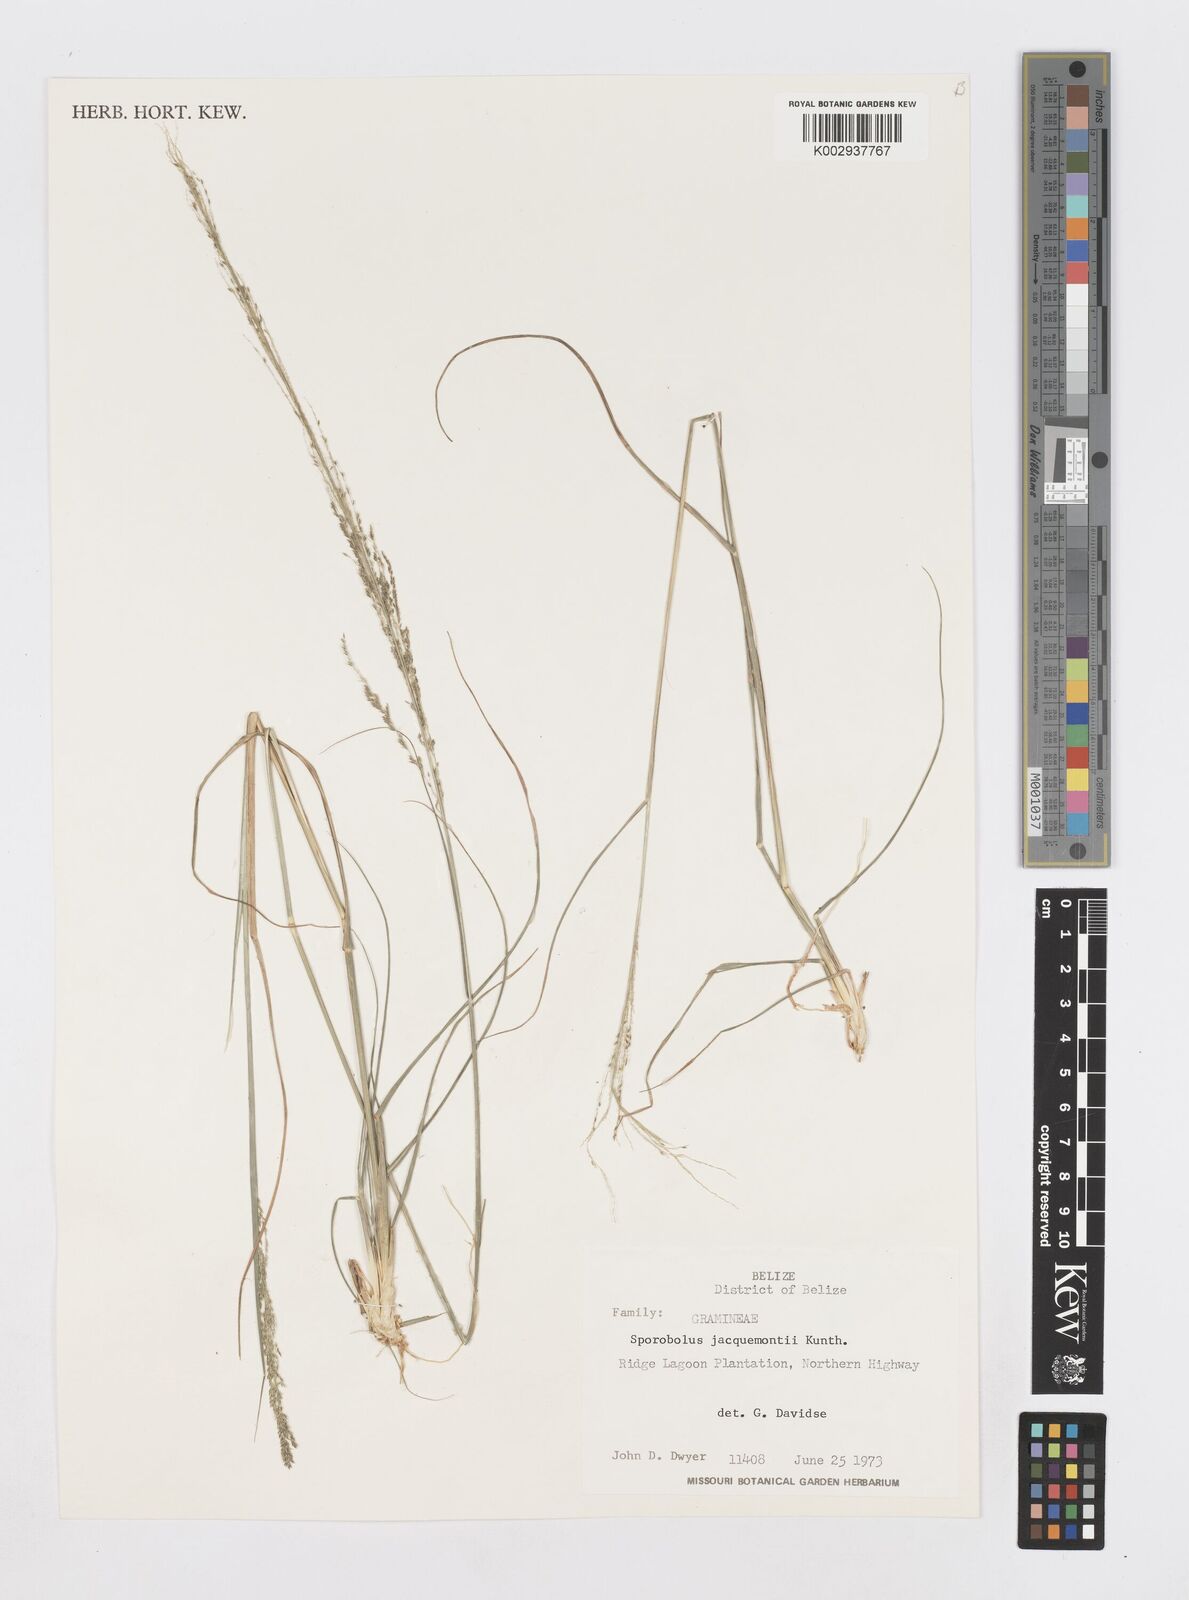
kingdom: Plantae
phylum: Tracheophyta
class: Liliopsida
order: Poales
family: Poaceae
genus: Sporobolus
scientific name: Sporobolus pyramidalis
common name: West indian dropseed
